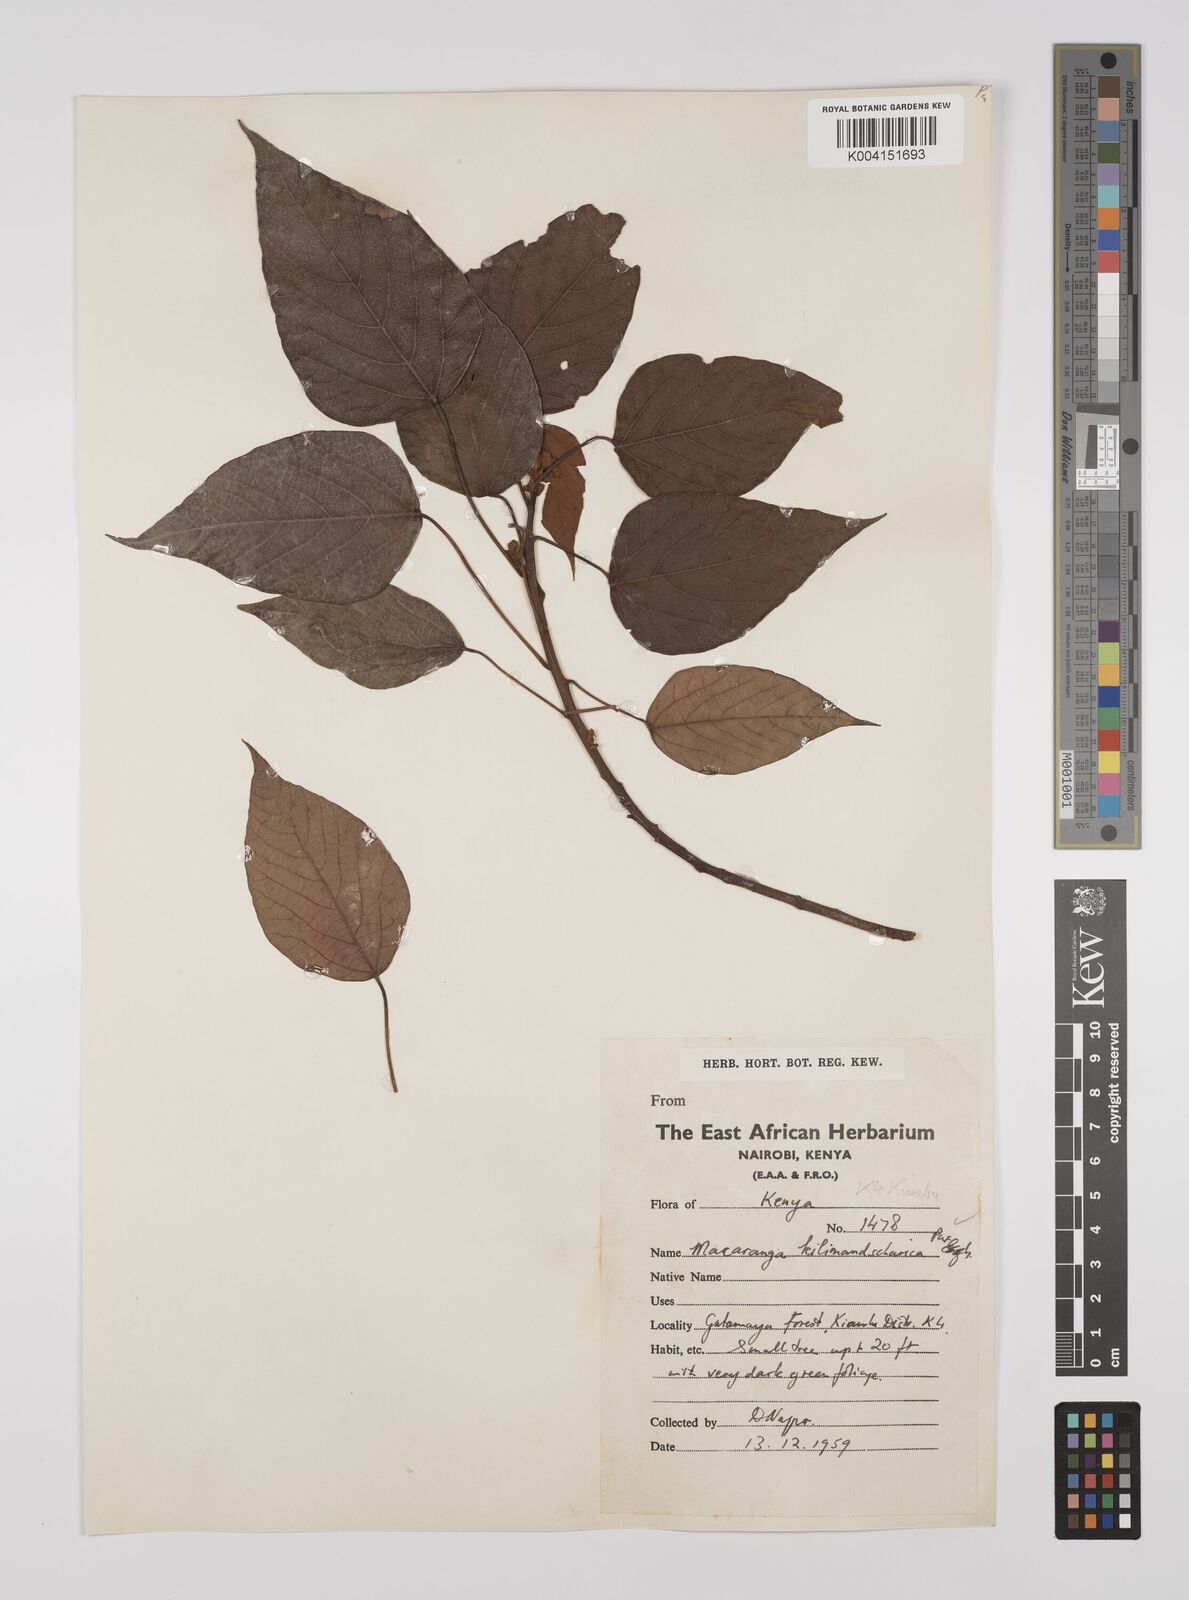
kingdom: Plantae
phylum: Tracheophyta
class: Magnoliopsida
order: Malpighiales
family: Euphorbiaceae
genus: Macaranga
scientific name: Macaranga kilimandscharica
